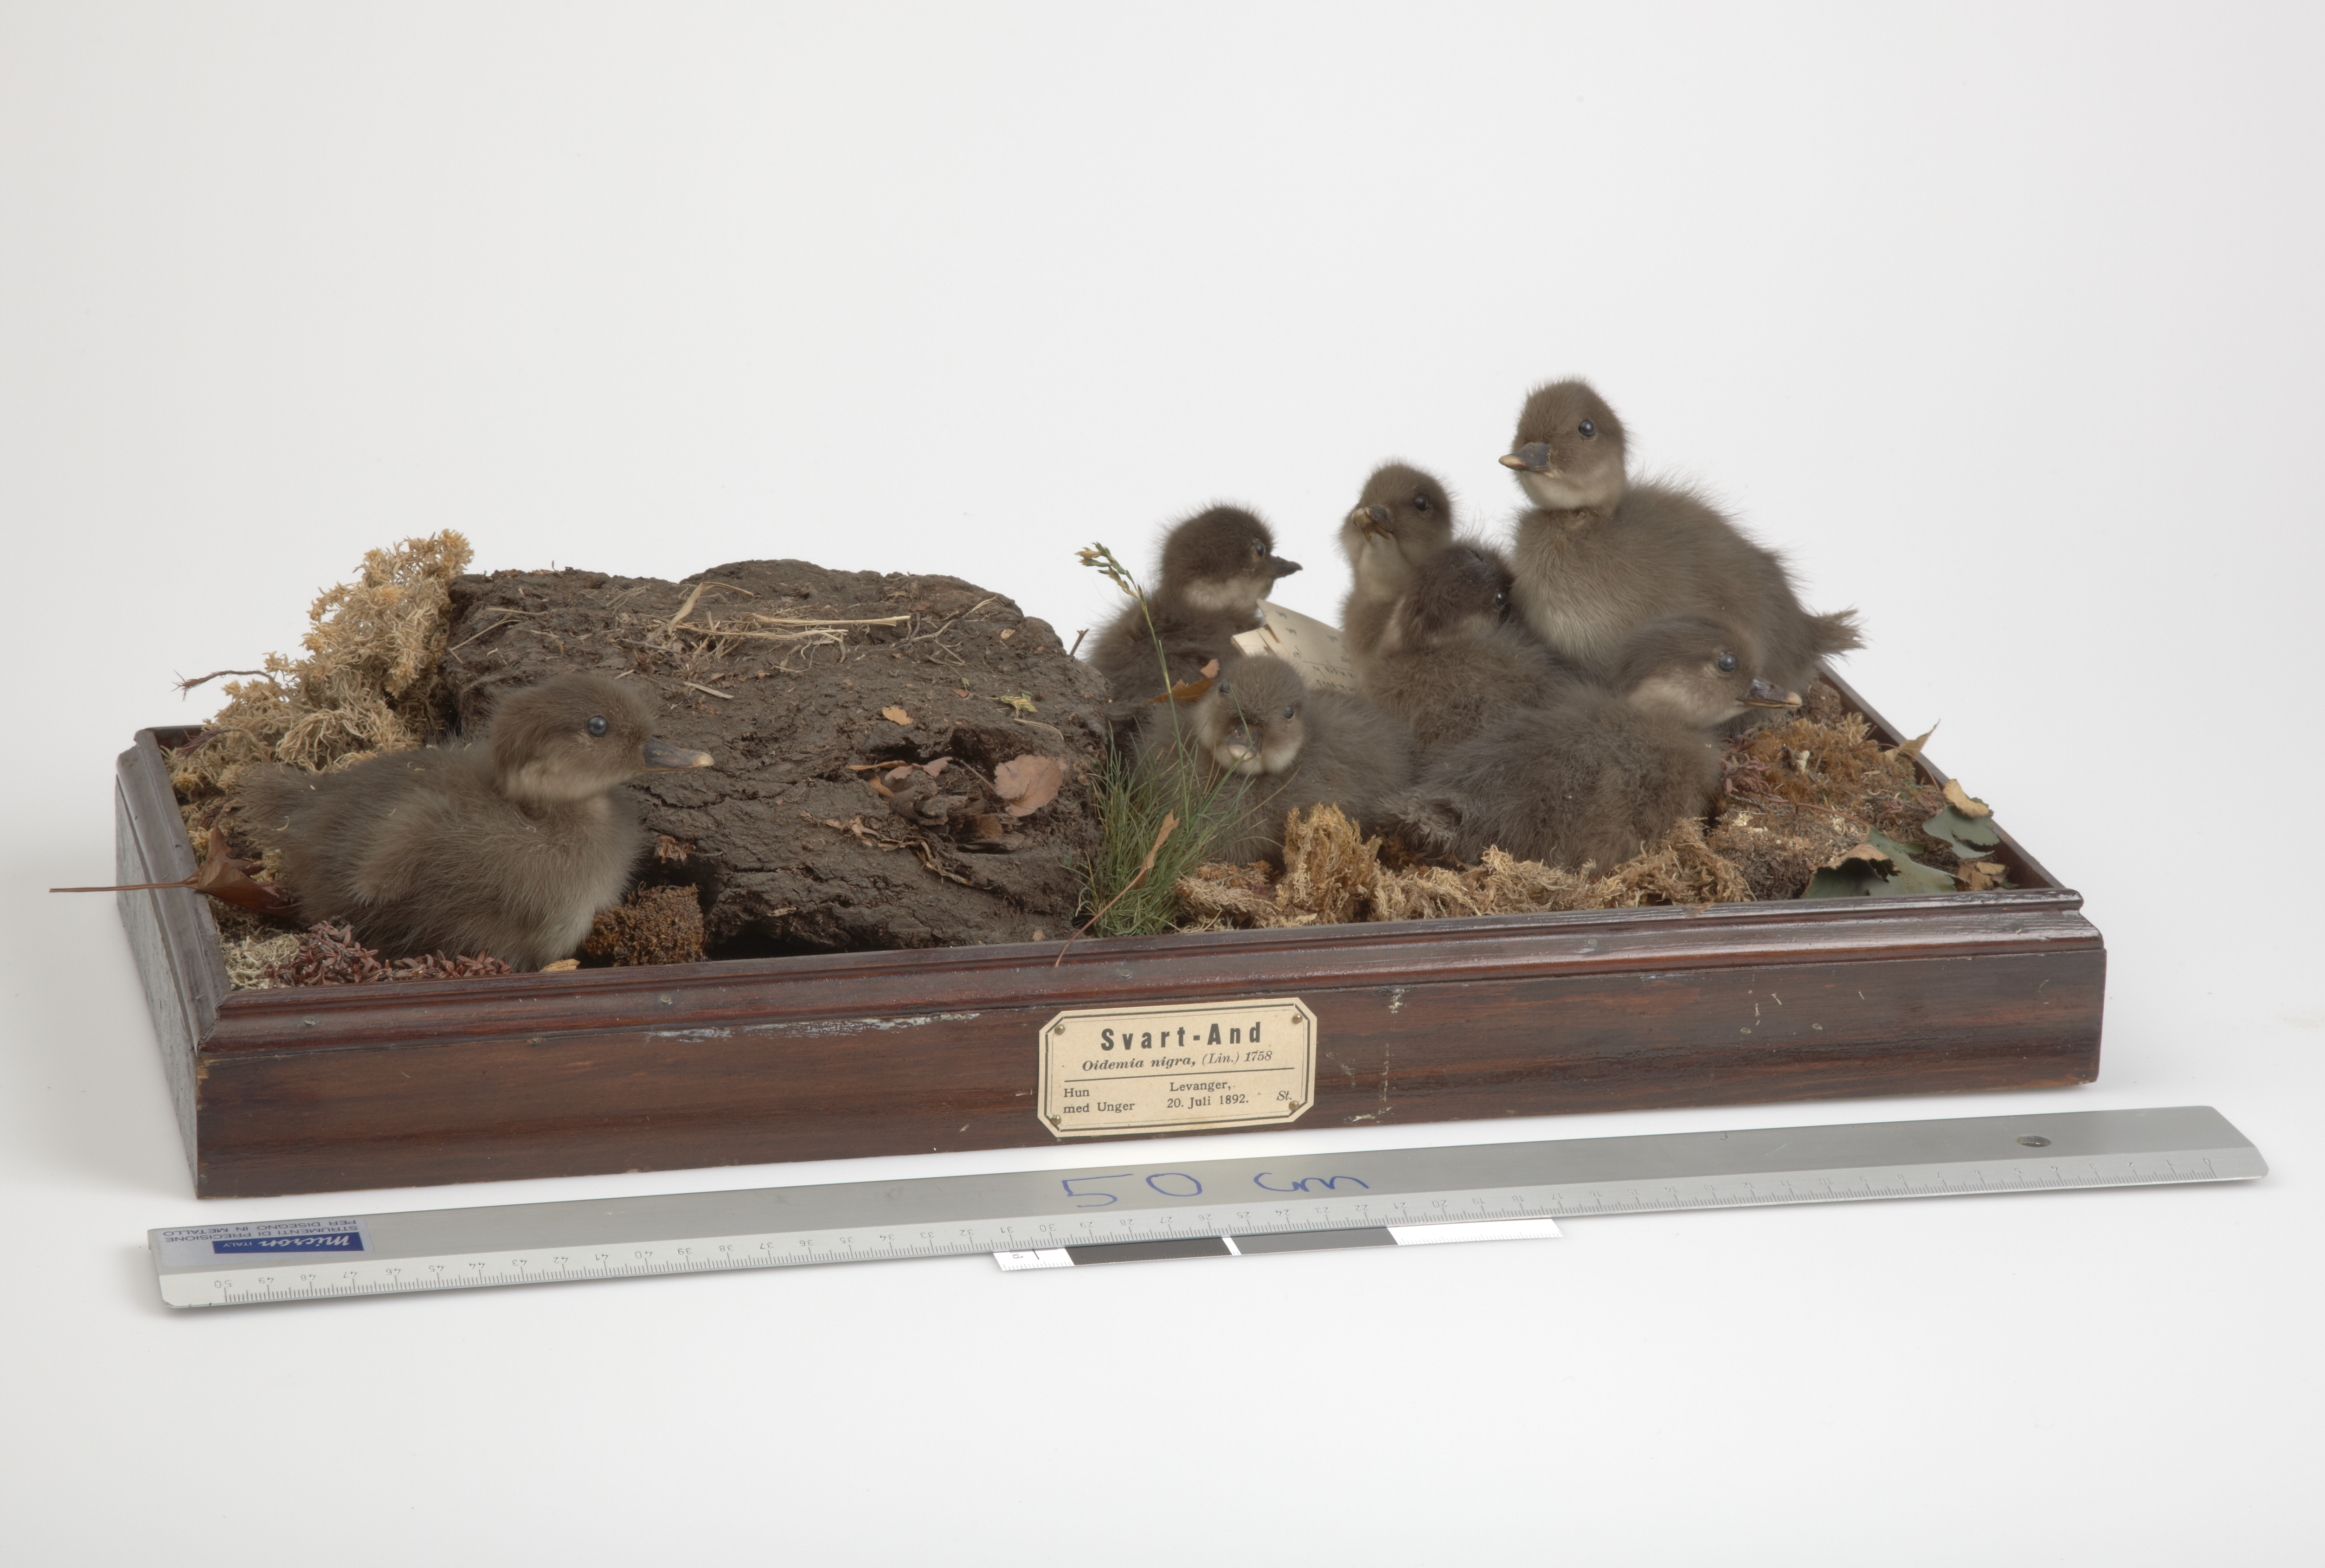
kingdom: Animalia
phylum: Chordata
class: Aves
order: Anseriformes
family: Anatidae
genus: Melanitta
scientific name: Melanitta nigra
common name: Common scoter
